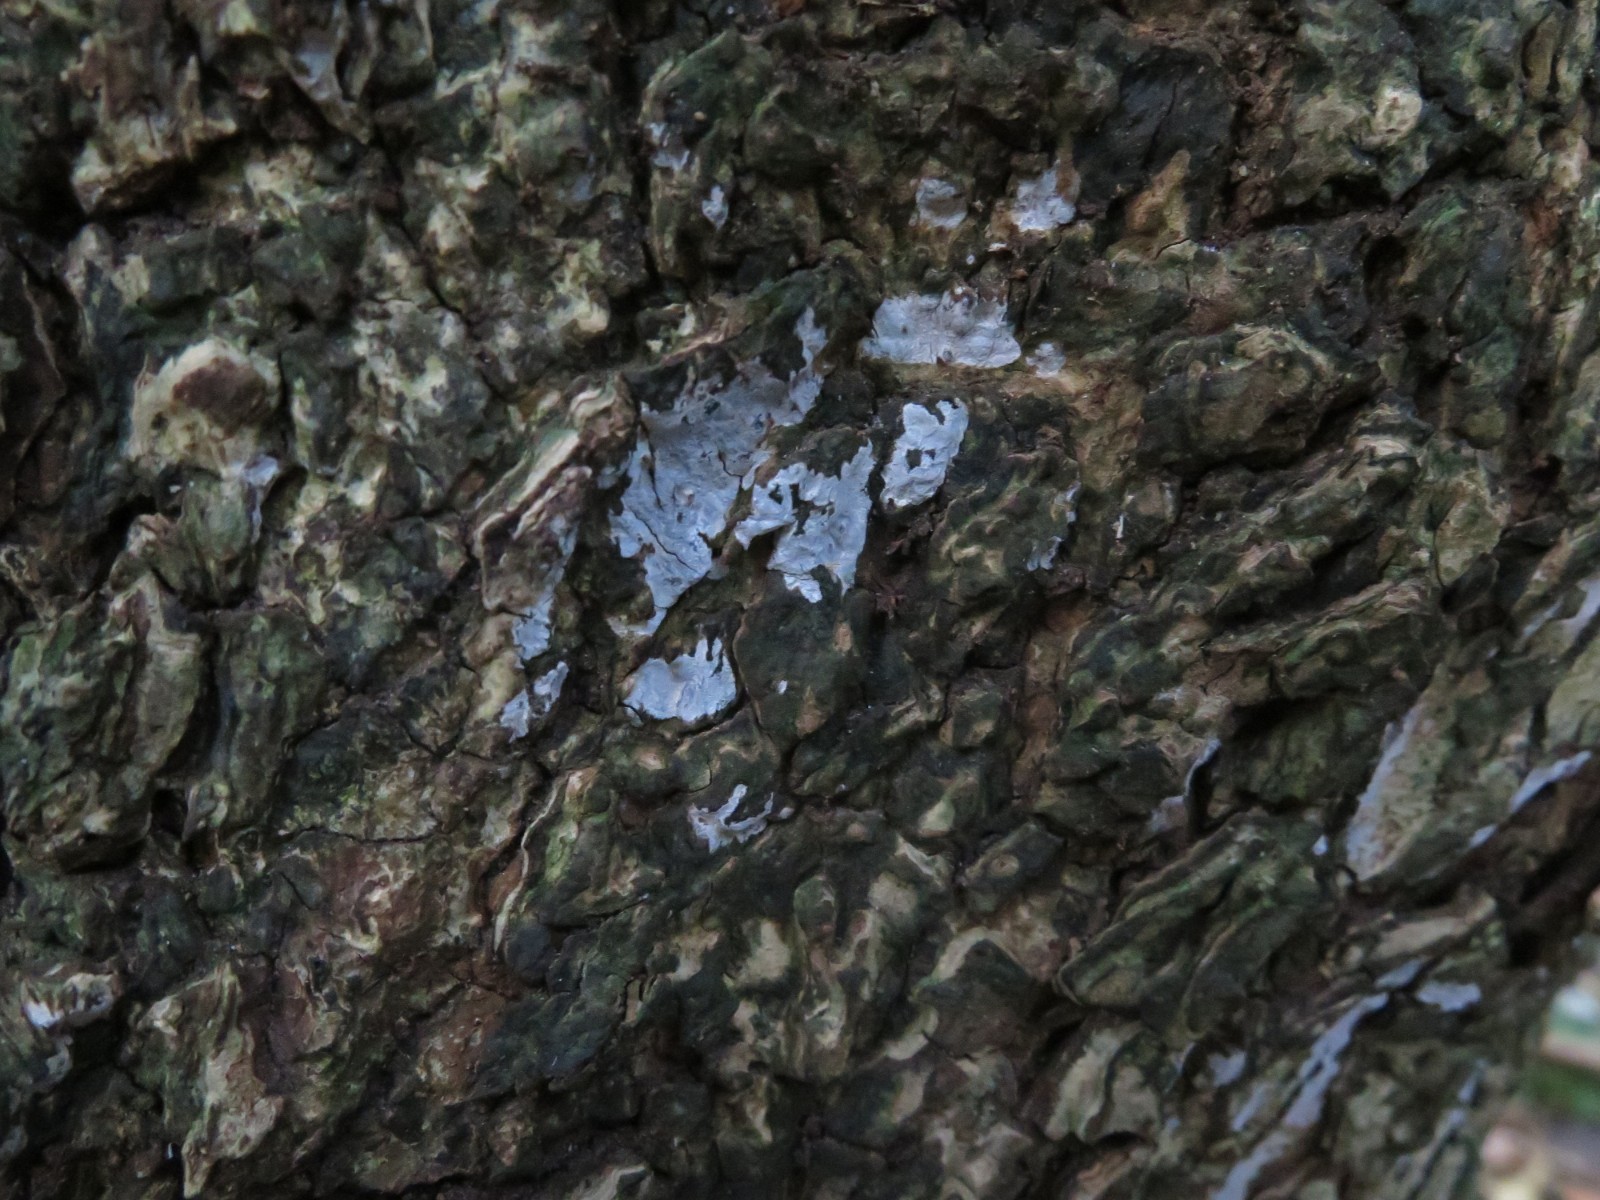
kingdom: Fungi
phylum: Basidiomycota
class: Agaricomycetes
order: Agaricales
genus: Dendrothele
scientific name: Dendrothele acerina
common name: navr-kalkplet
